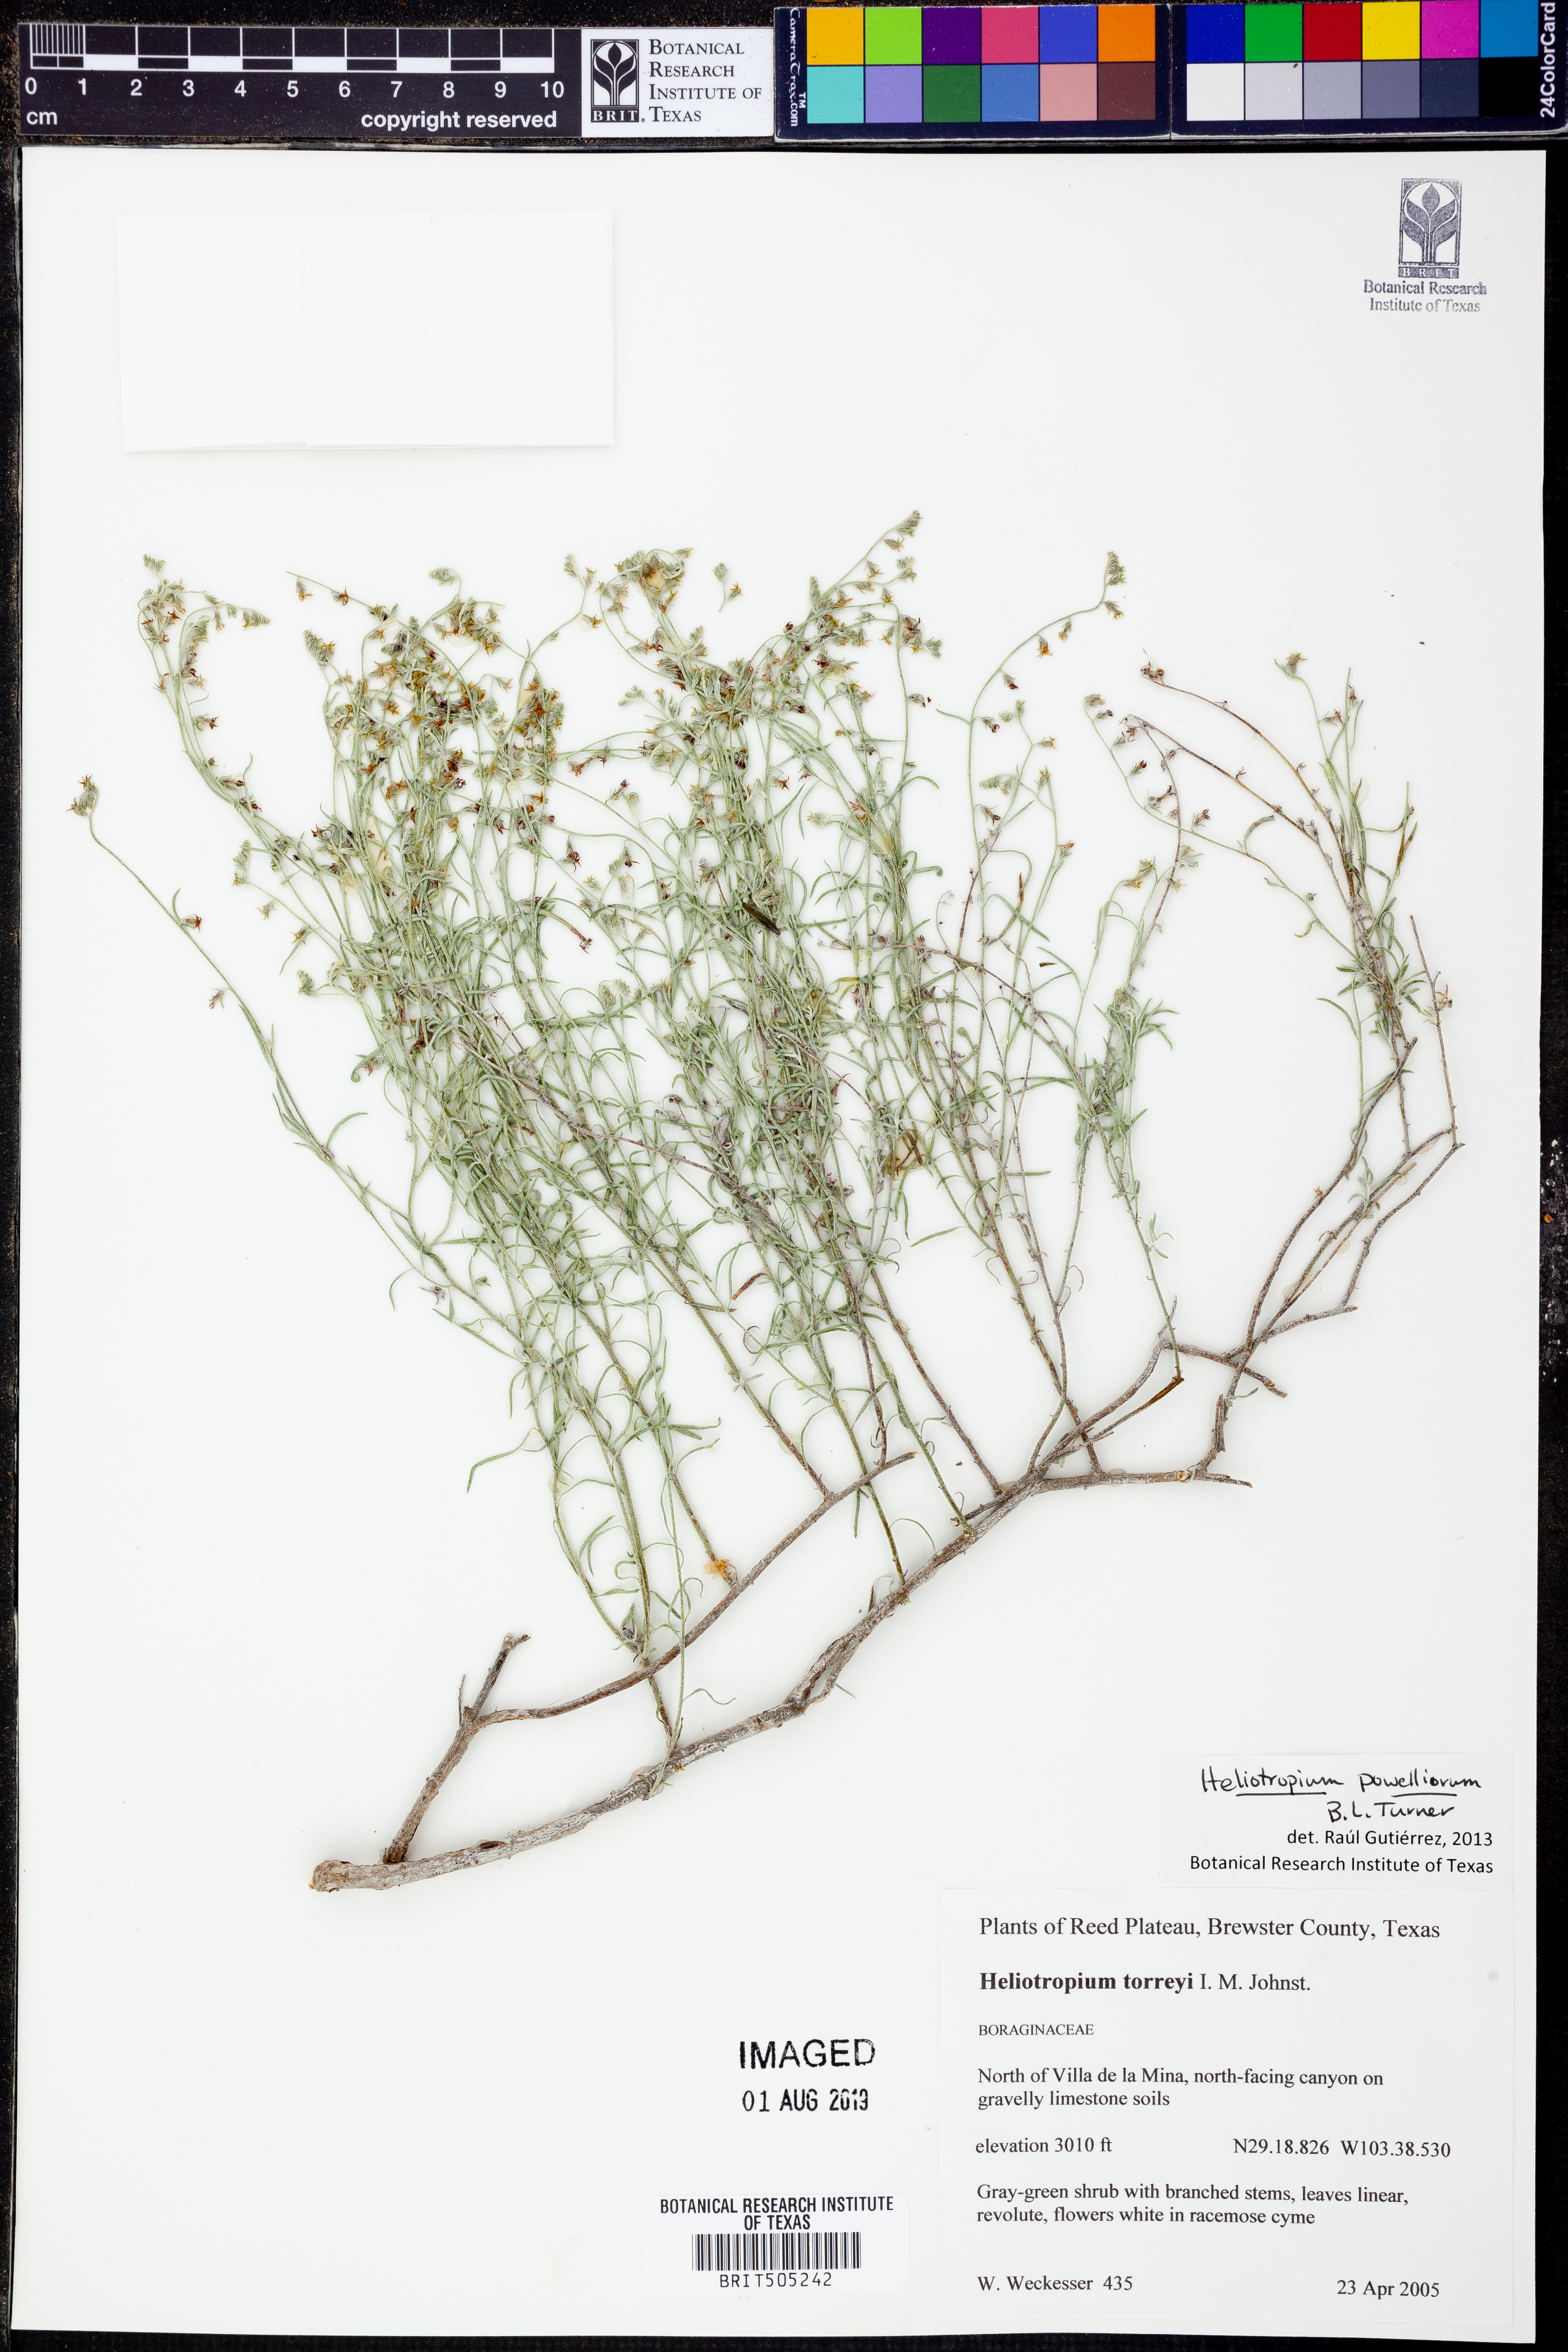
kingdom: Plantae
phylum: Tracheophyta
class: Magnoliopsida
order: Boraginales
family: Heliotropiaceae
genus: Euploca
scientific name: Euploca powelliorum
